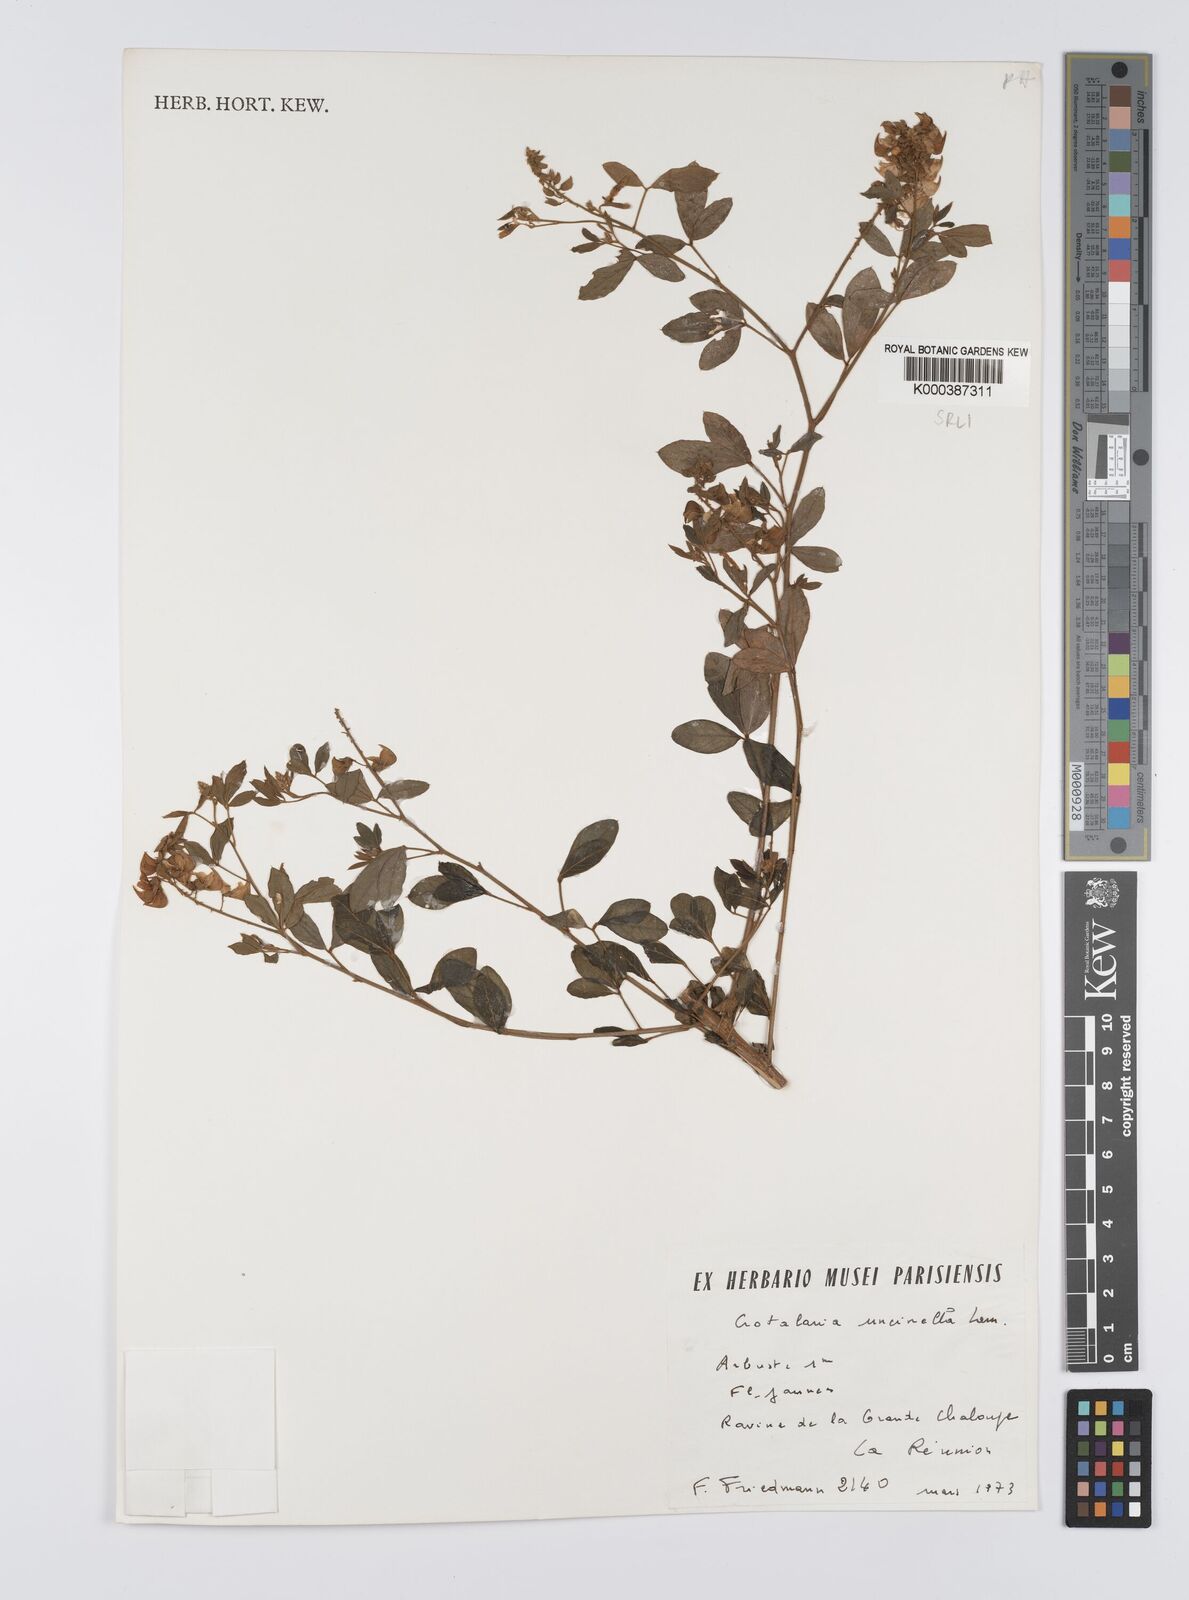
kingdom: Plantae
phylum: Tracheophyta
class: Magnoliopsida
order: Fabales
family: Fabaceae
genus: Crotalaria
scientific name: Crotalaria uncinella
